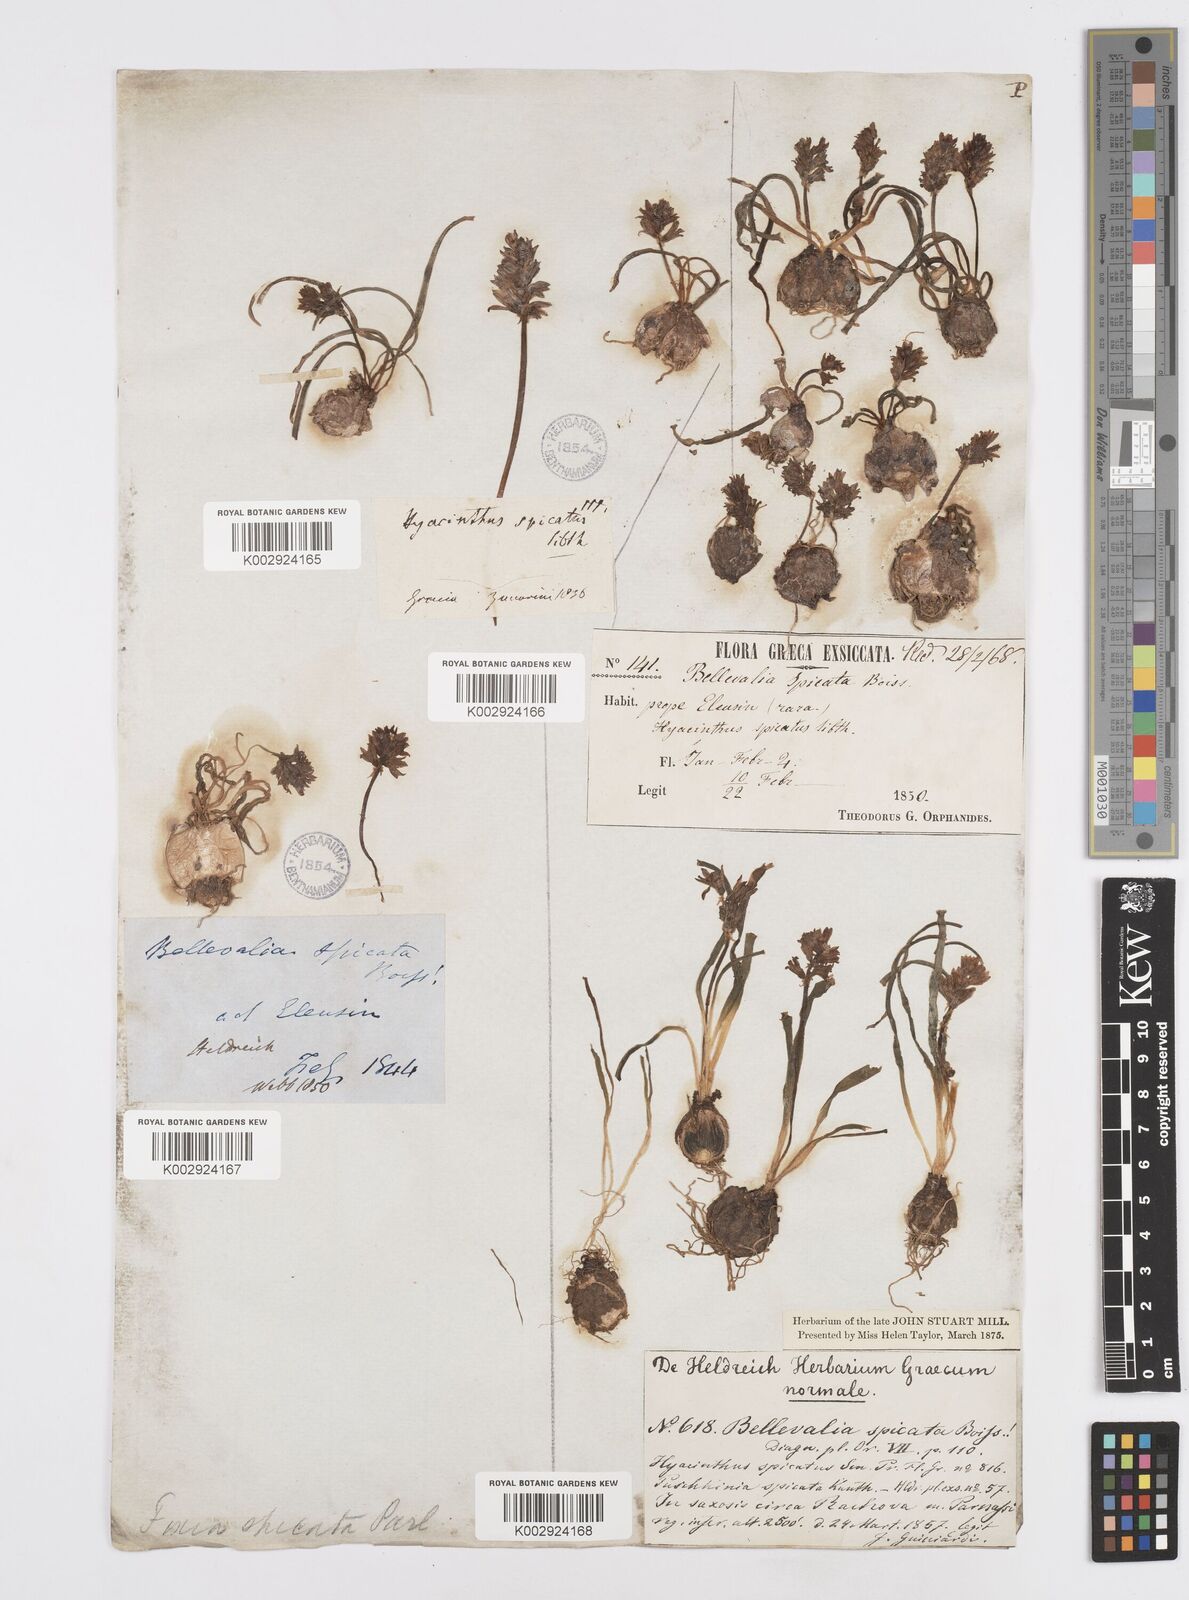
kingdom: Plantae
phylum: Tracheophyta
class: Liliopsida
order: Asparagales
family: Asparagaceae
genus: Bellevalia
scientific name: Bellevalia hyacinthoides
